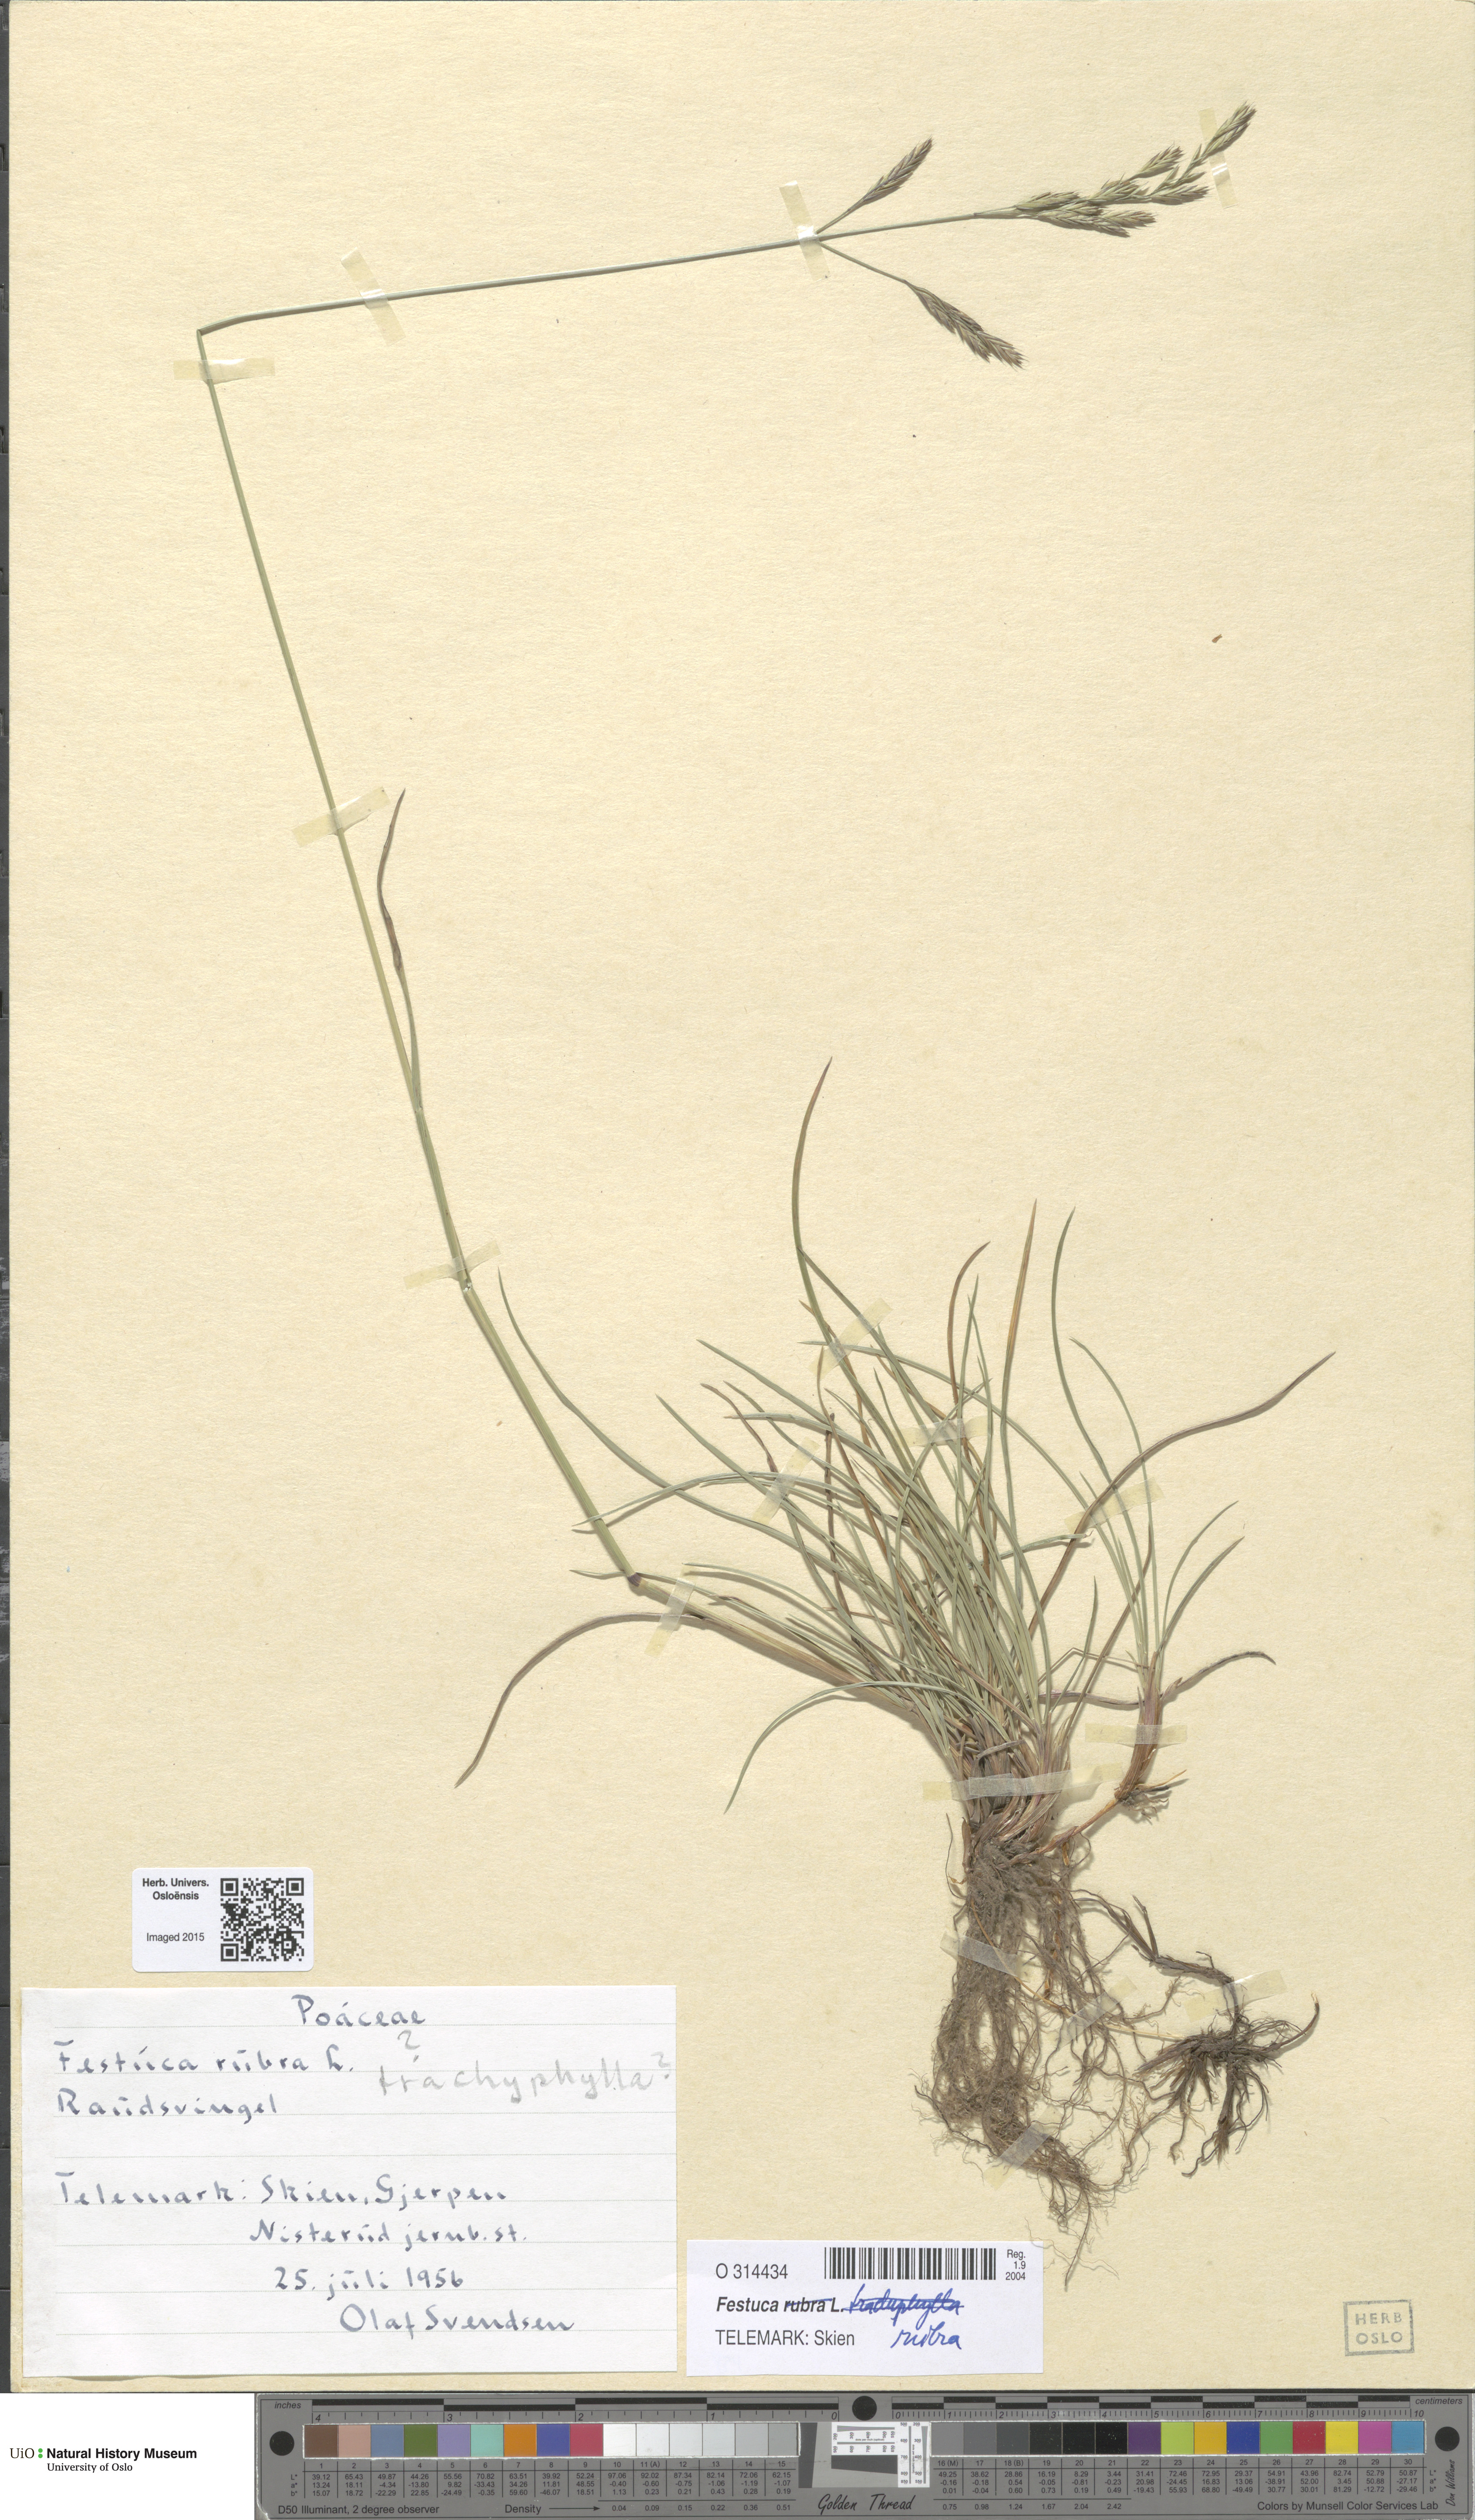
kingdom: Plantae
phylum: Tracheophyta
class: Liliopsida
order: Poales
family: Poaceae
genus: Festuca
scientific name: Festuca rubra
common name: Red fescue
